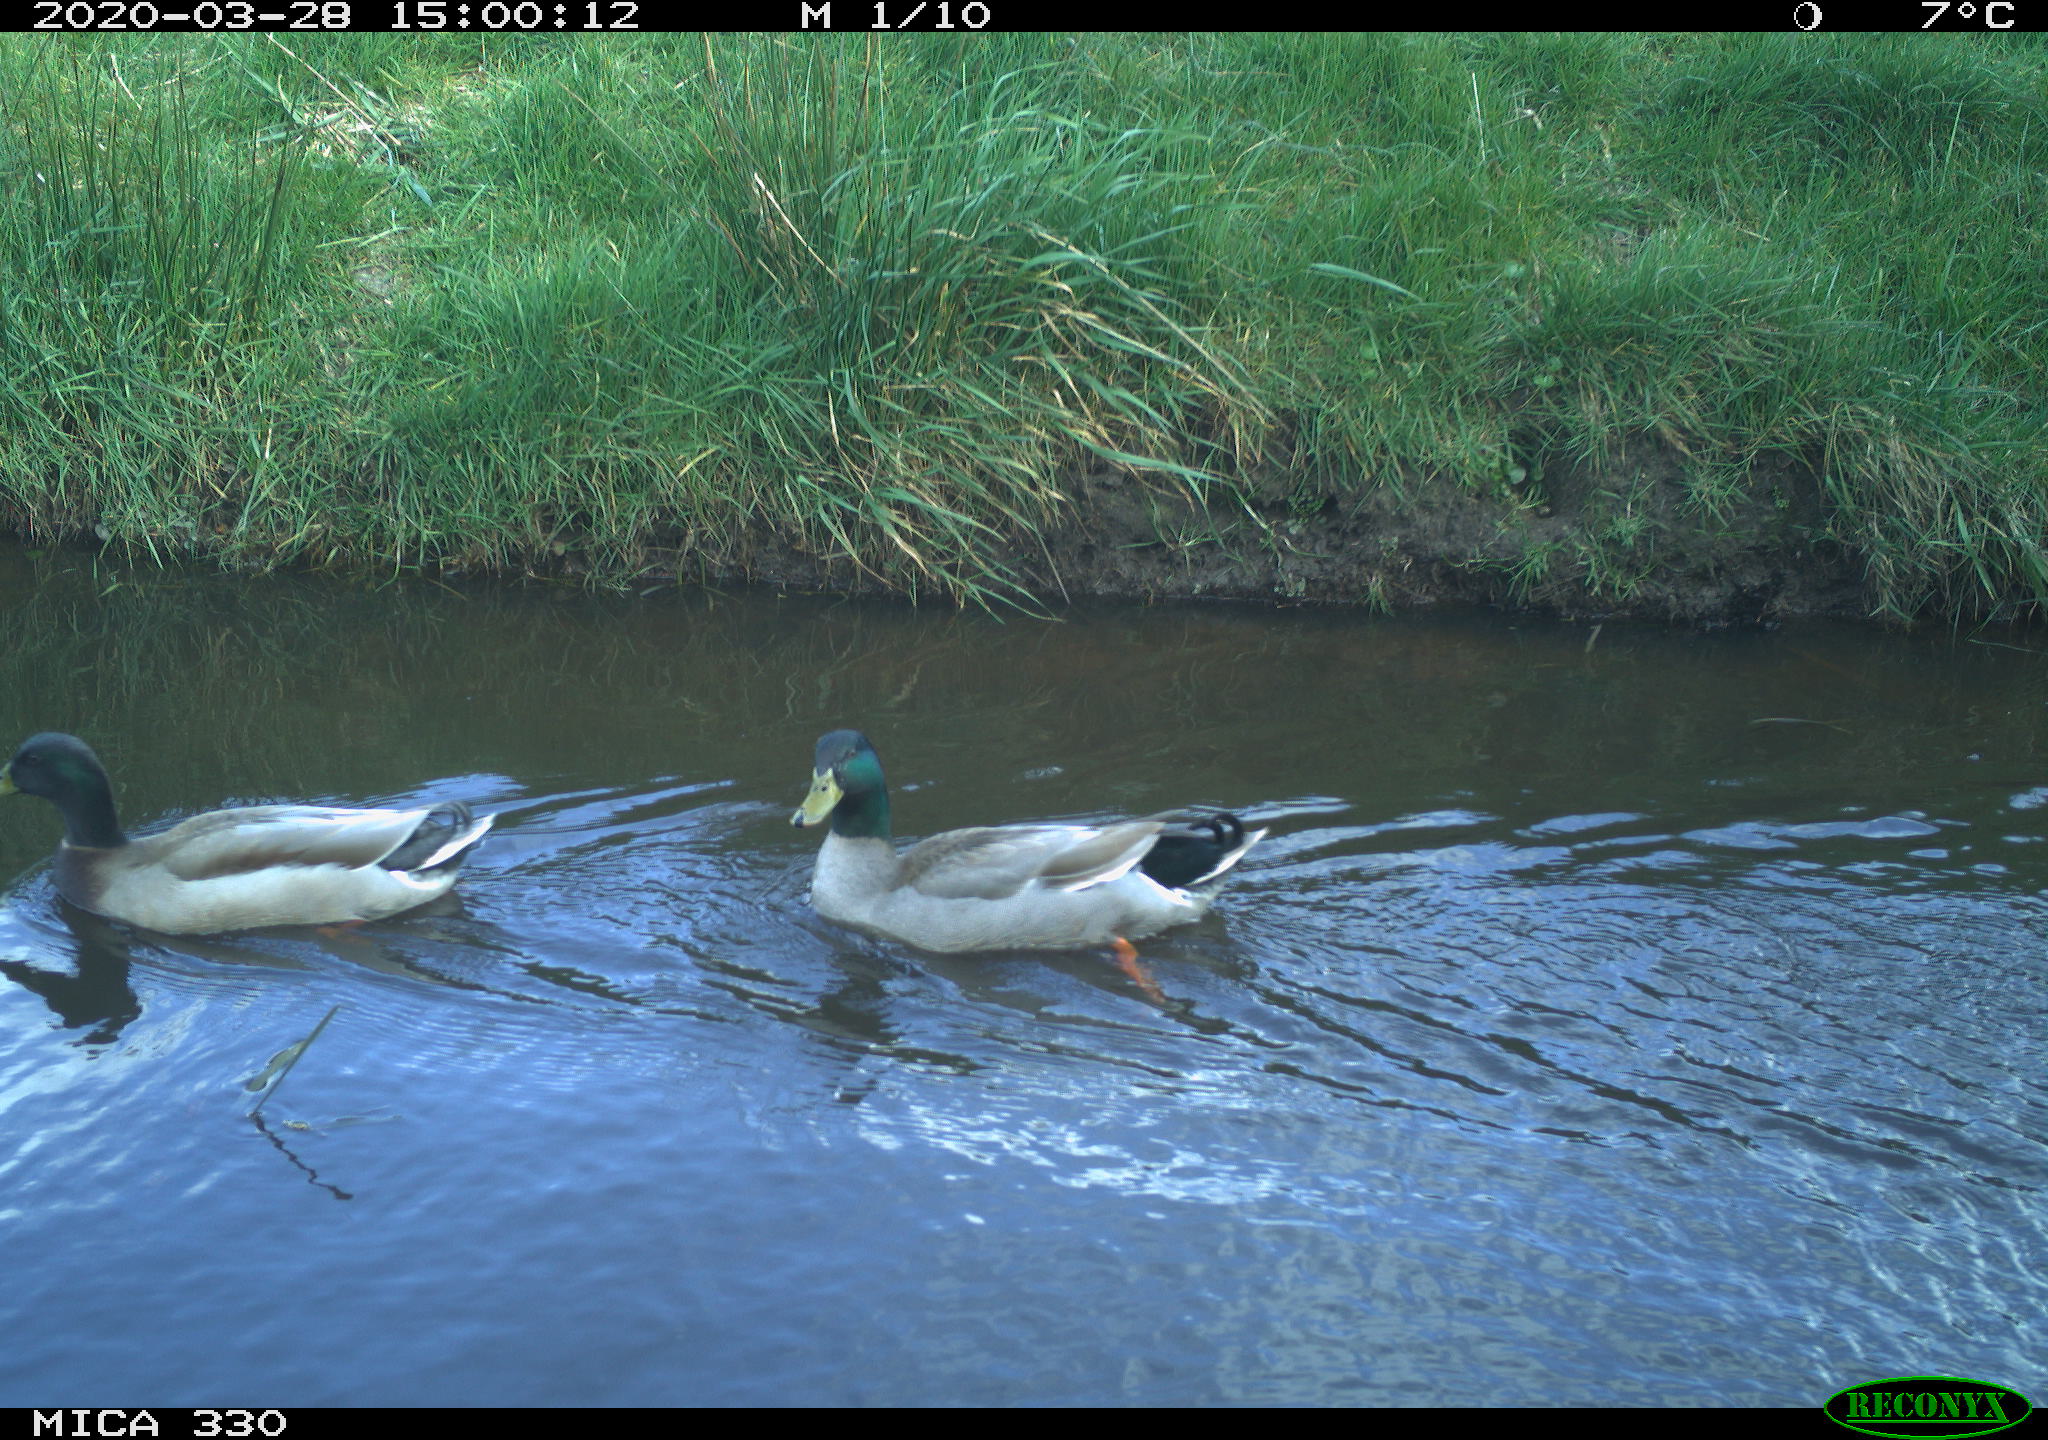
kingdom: Animalia
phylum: Chordata
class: Aves
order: Anseriformes
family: Anatidae
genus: Anas
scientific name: Anas platyrhynchos
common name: Mallard
